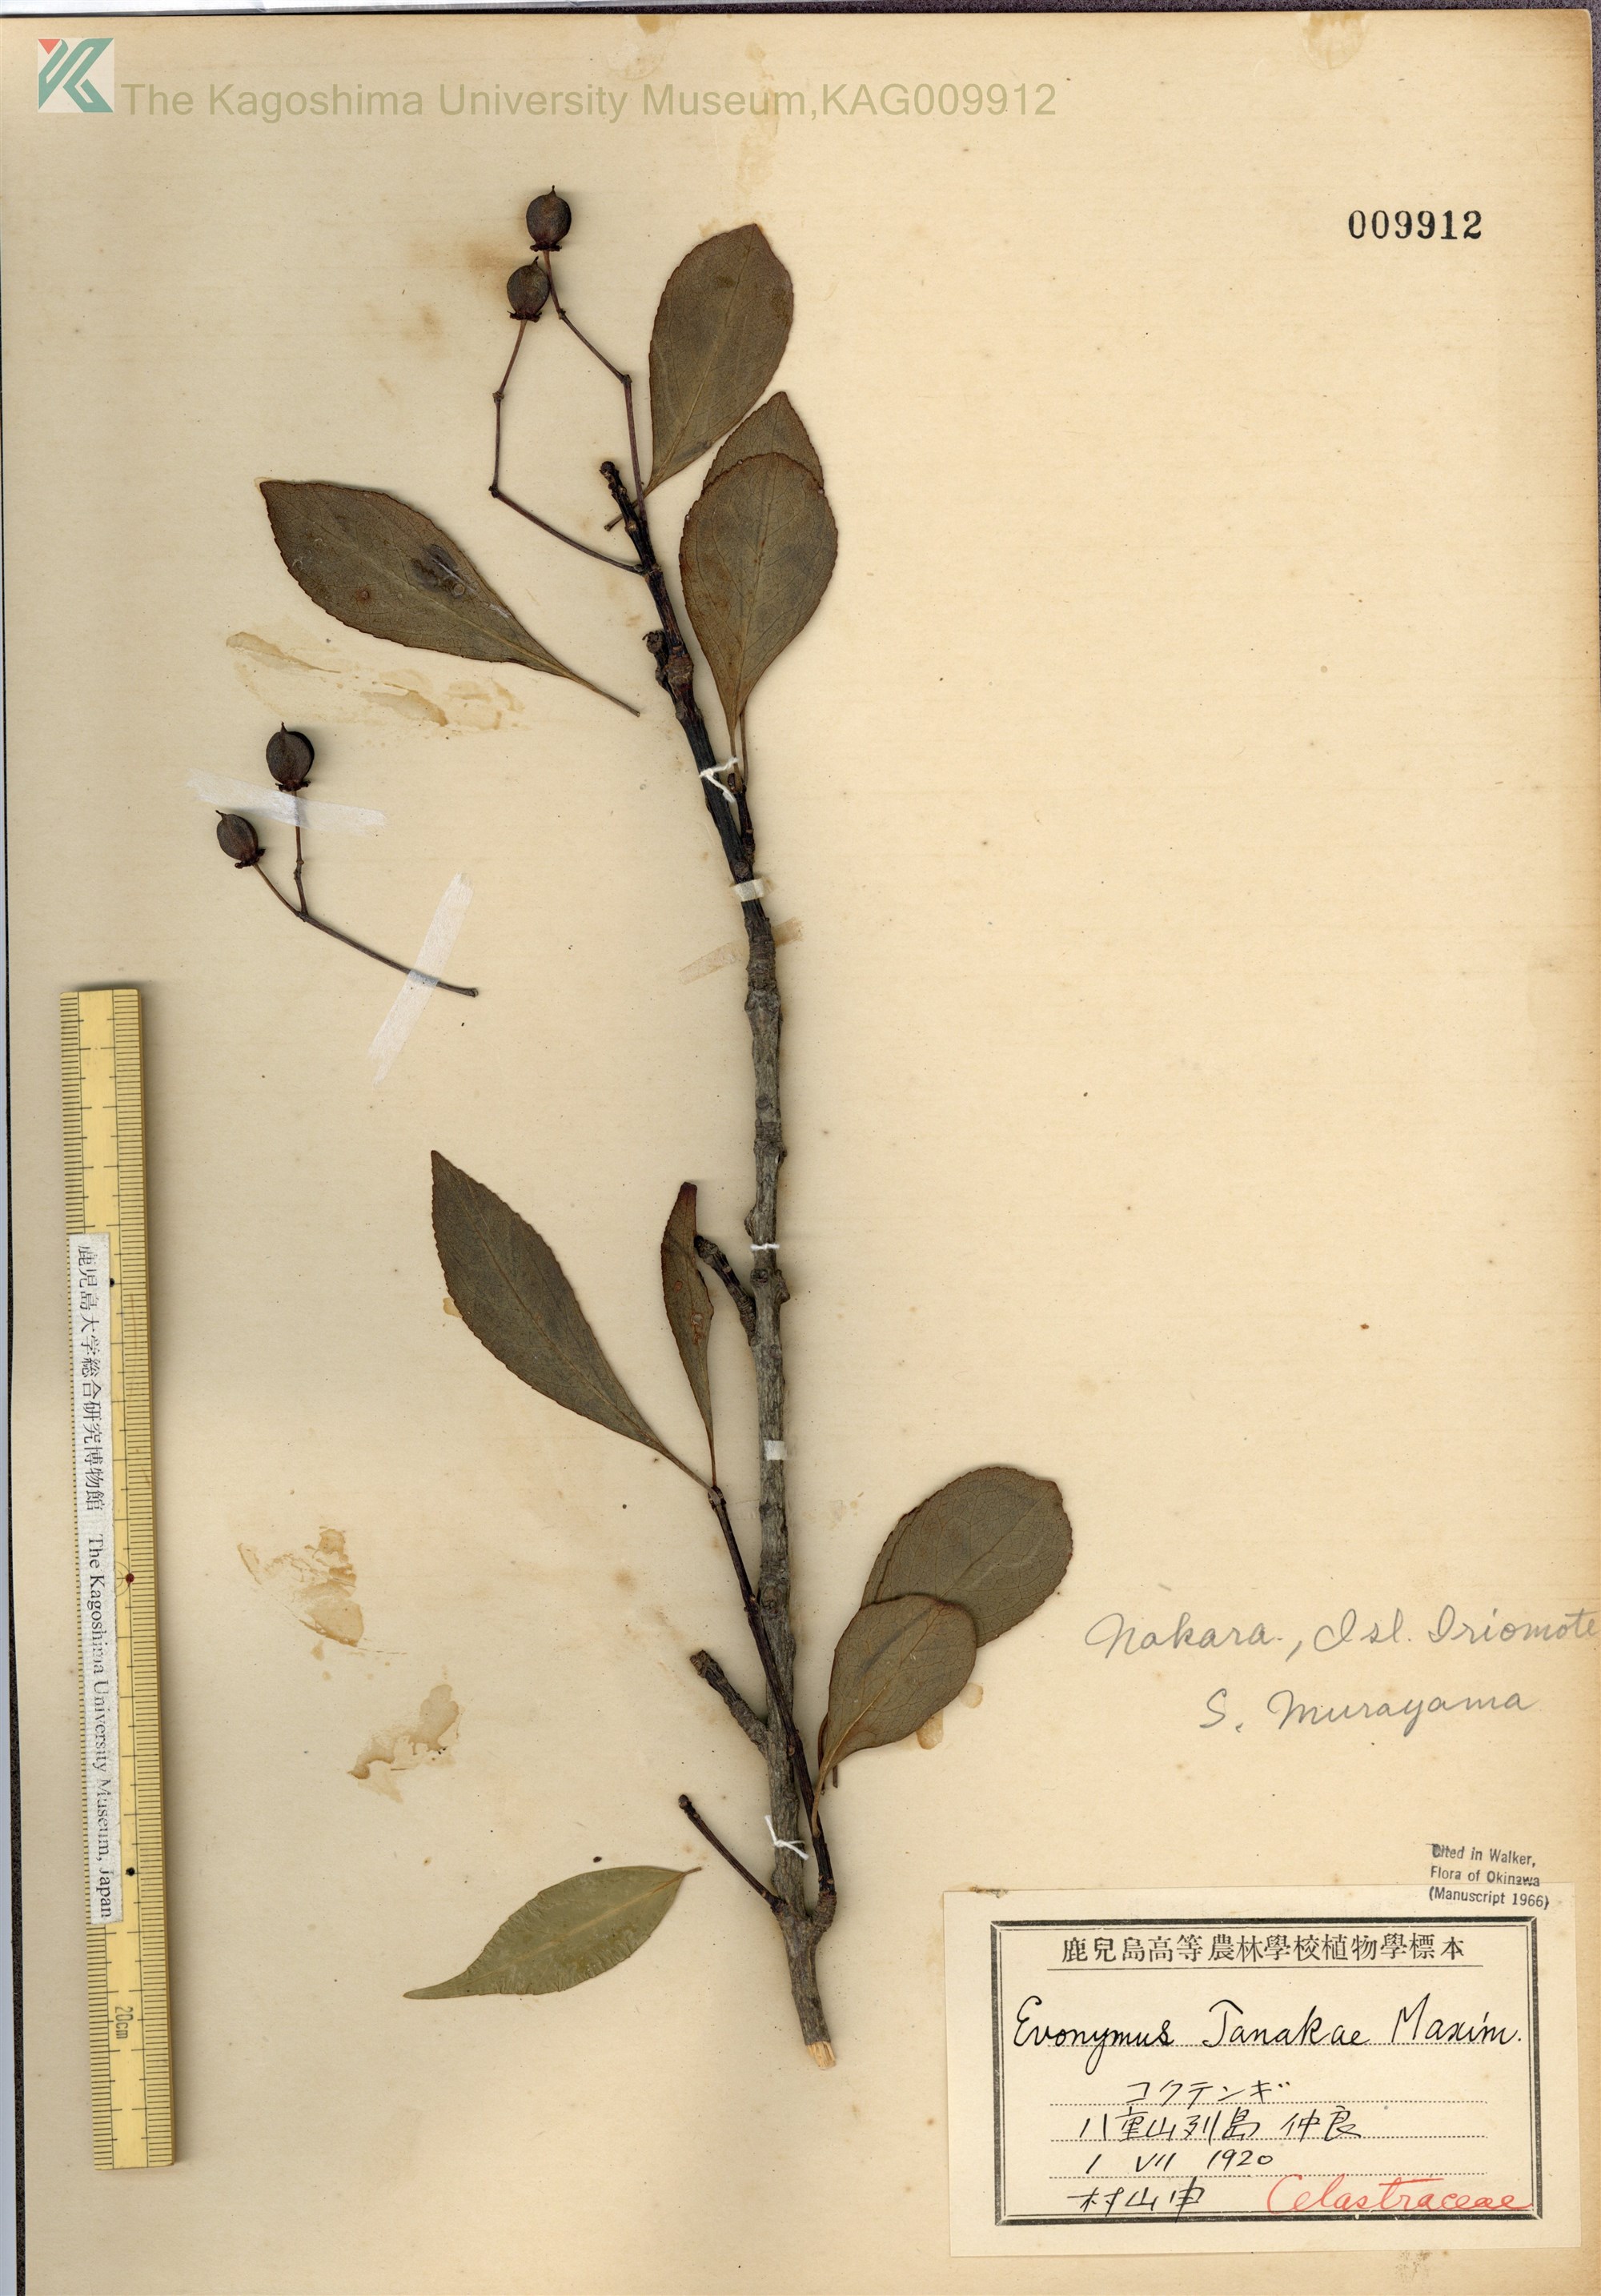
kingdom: Plantae
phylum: Tracheophyta
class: Magnoliopsida
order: Celastrales
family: Celastraceae
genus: Euonymus
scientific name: Euonymus carnosus
